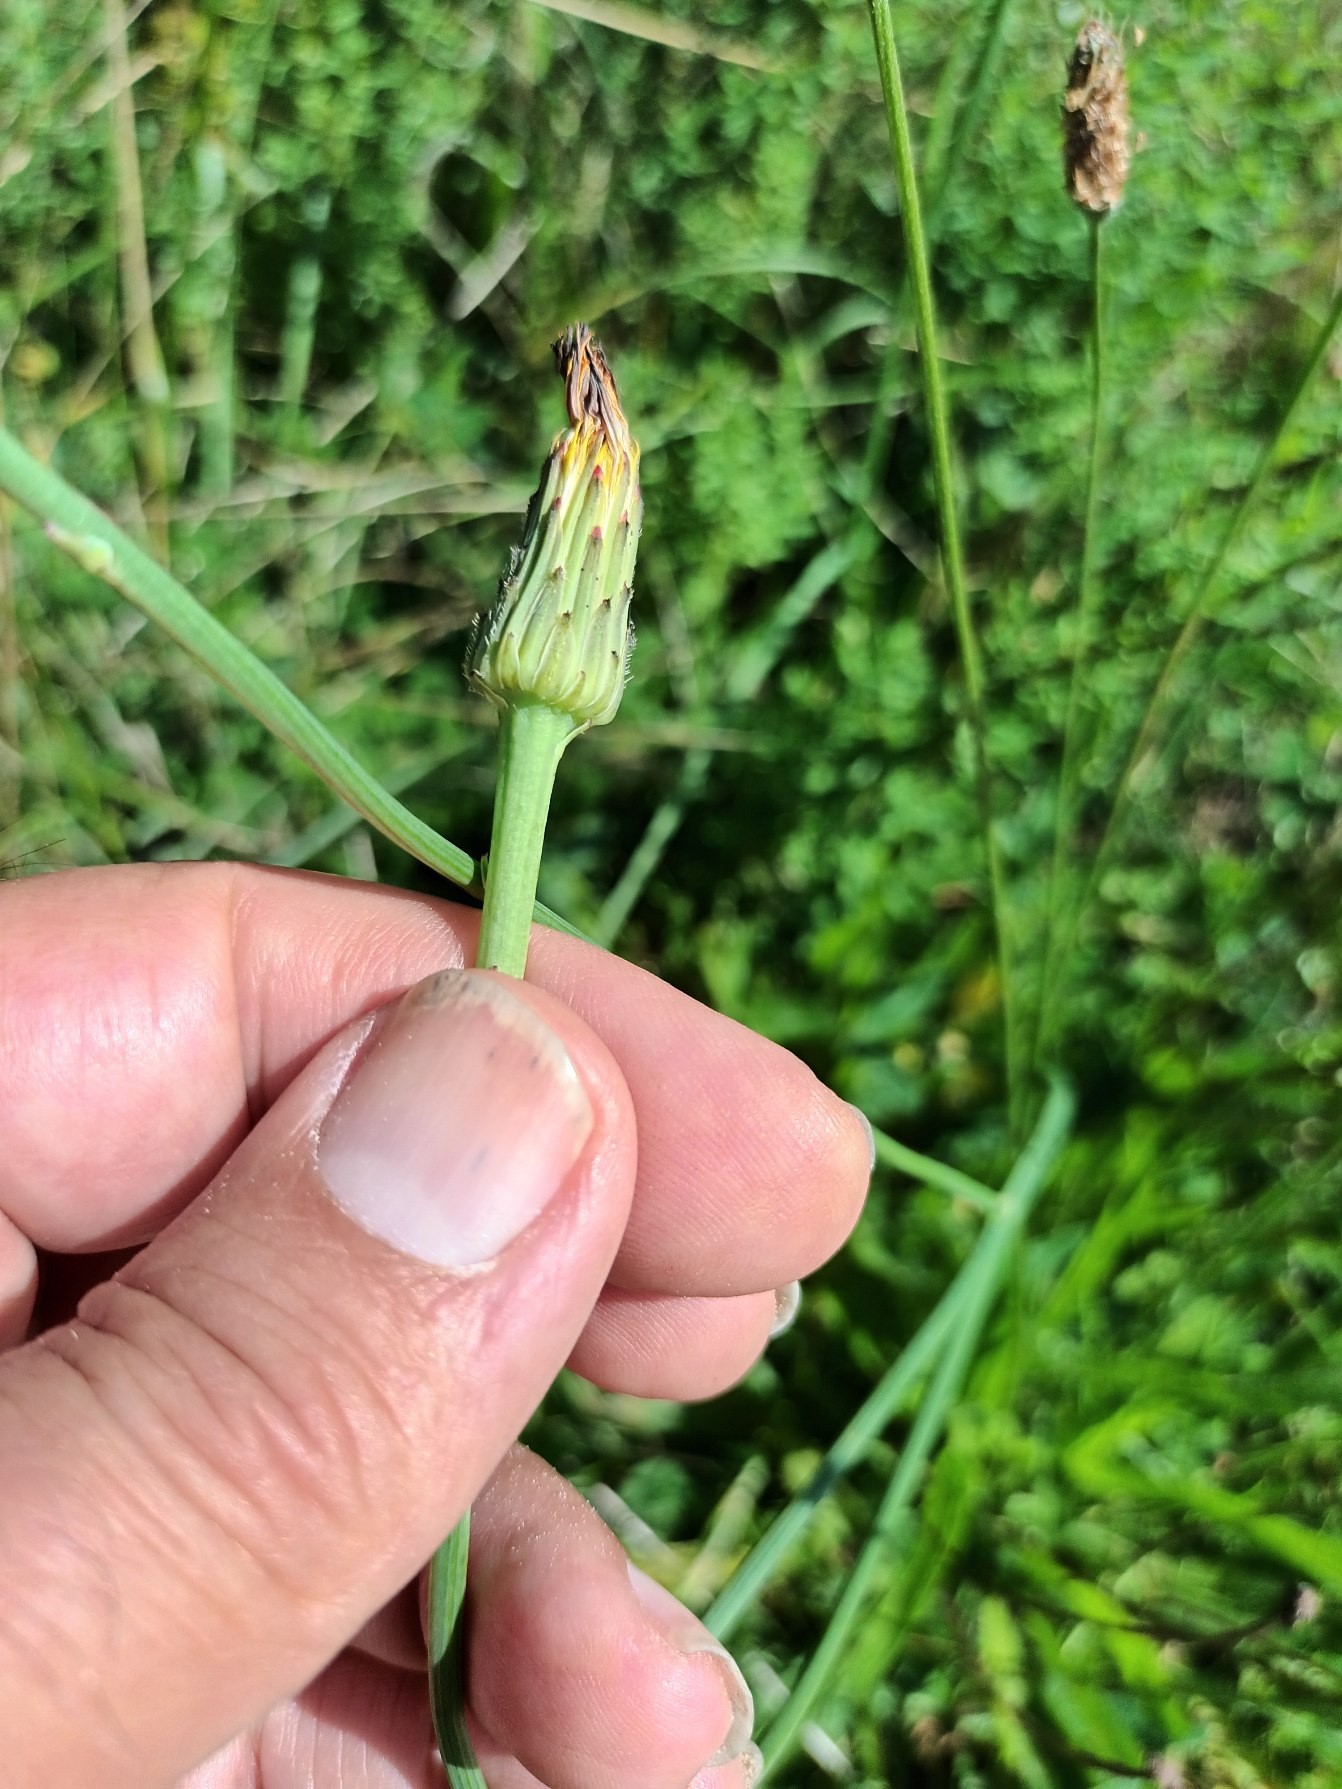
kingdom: Plantae
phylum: Tracheophyta
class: Magnoliopsida
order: Asterales
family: Asteraceae
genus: Hypochaeris
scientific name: Hypochaeris radicata
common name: Almindelig kongepen
